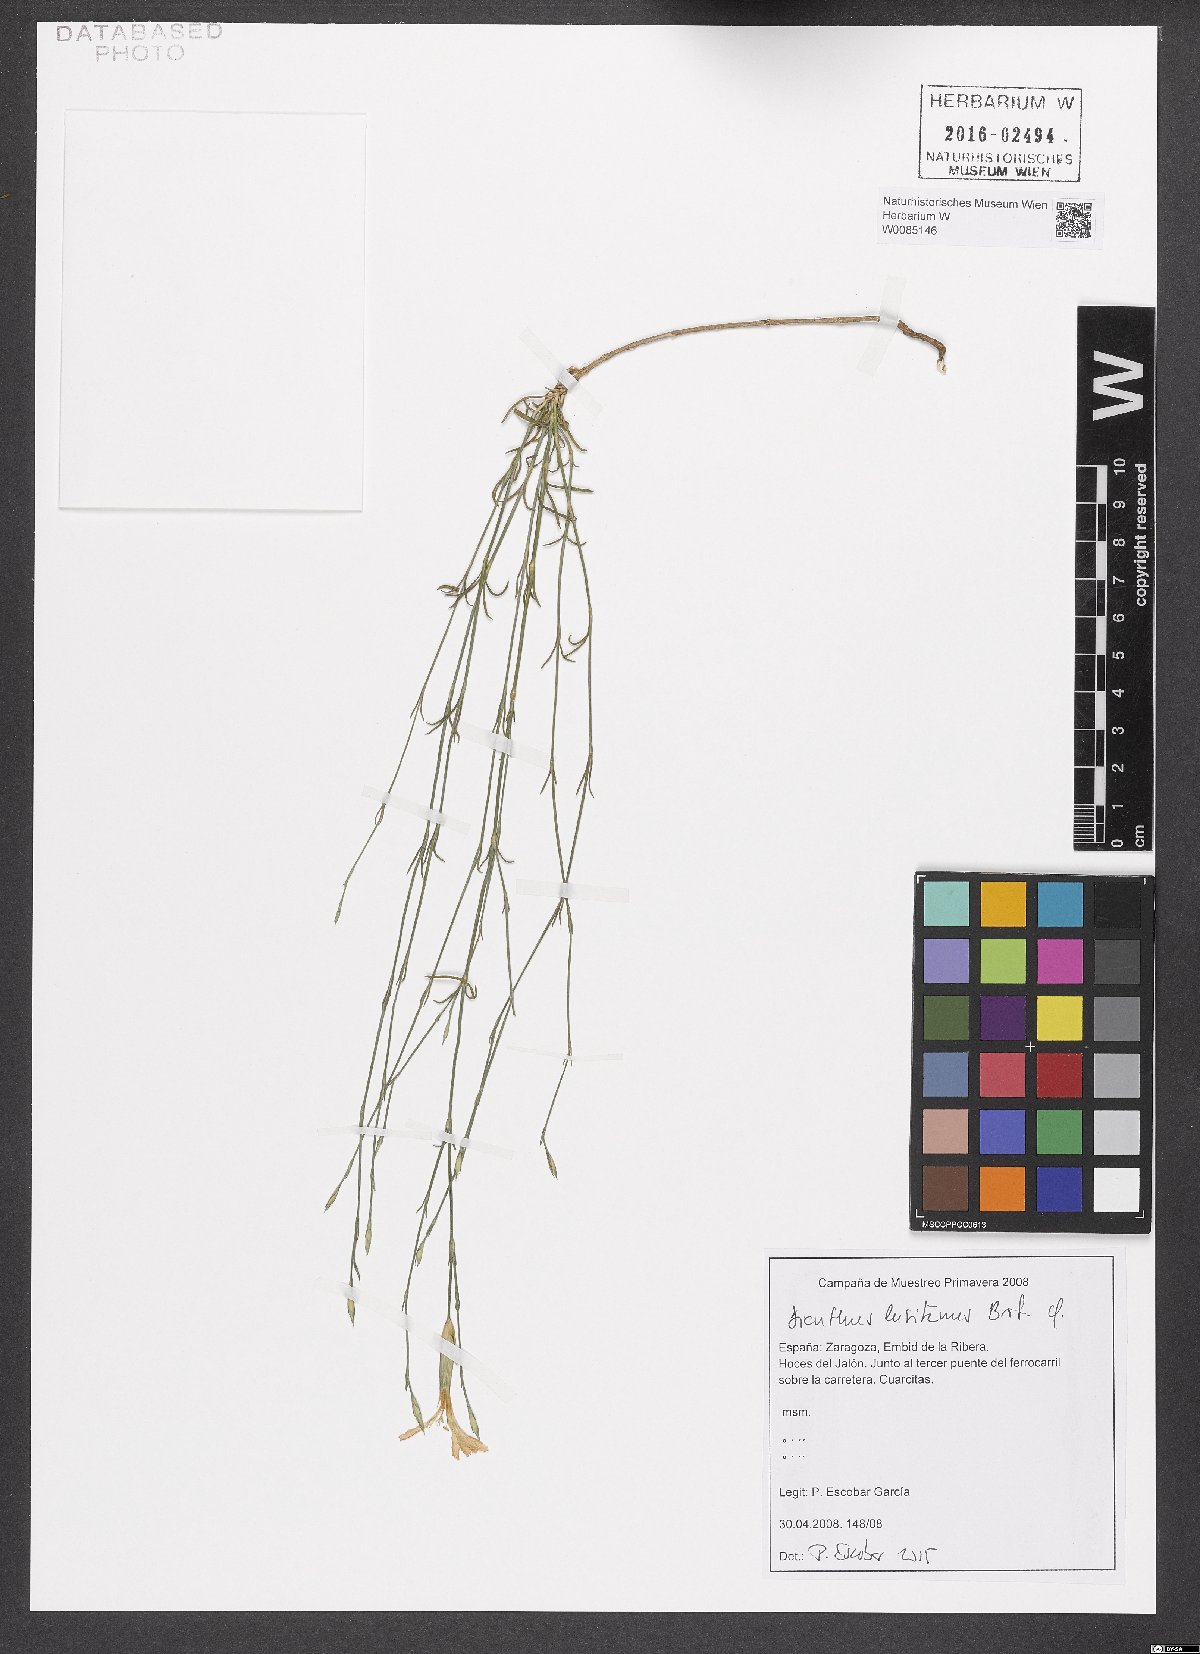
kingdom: Plantae
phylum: Tracheophyta
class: Magnoliopsida
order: Caryophyllales
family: Caryophyllaceae
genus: Dianthus
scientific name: Dianthus lusitanus
